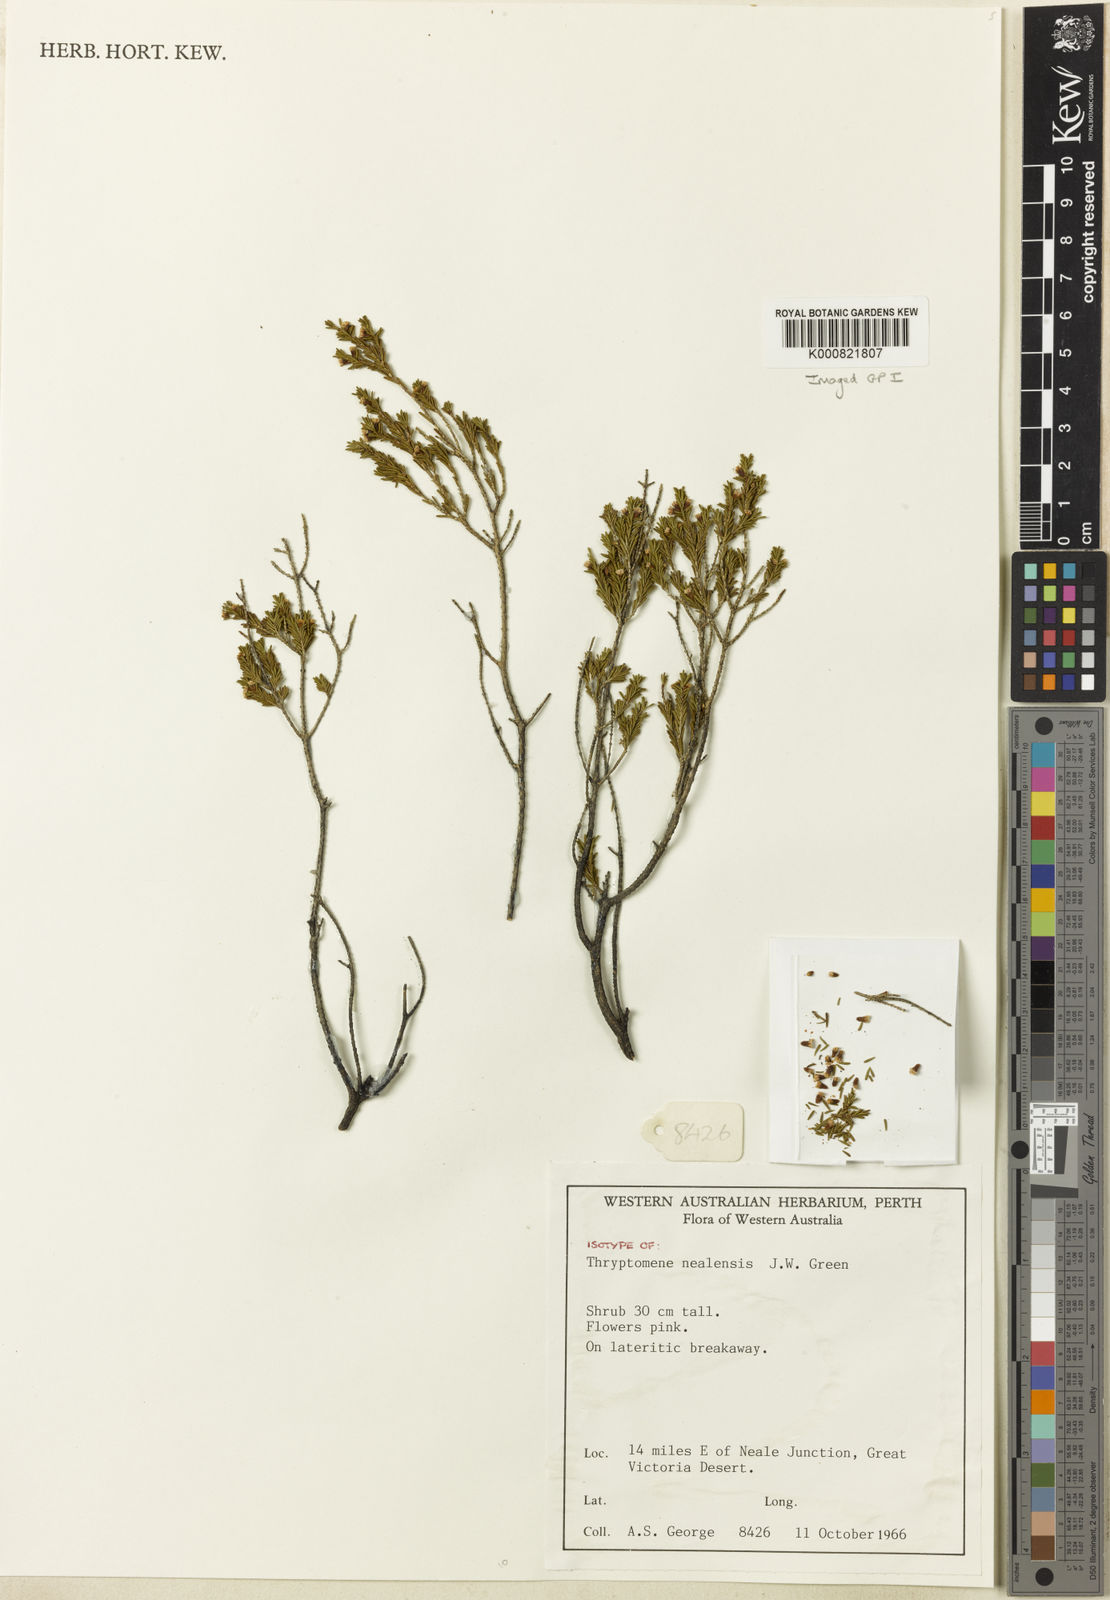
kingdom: Plantae
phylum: Tracheophyta
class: Magnoliopsida
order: Myrtales
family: Myrtaceae
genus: Thryptomene
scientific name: Thryptomene nealensis
